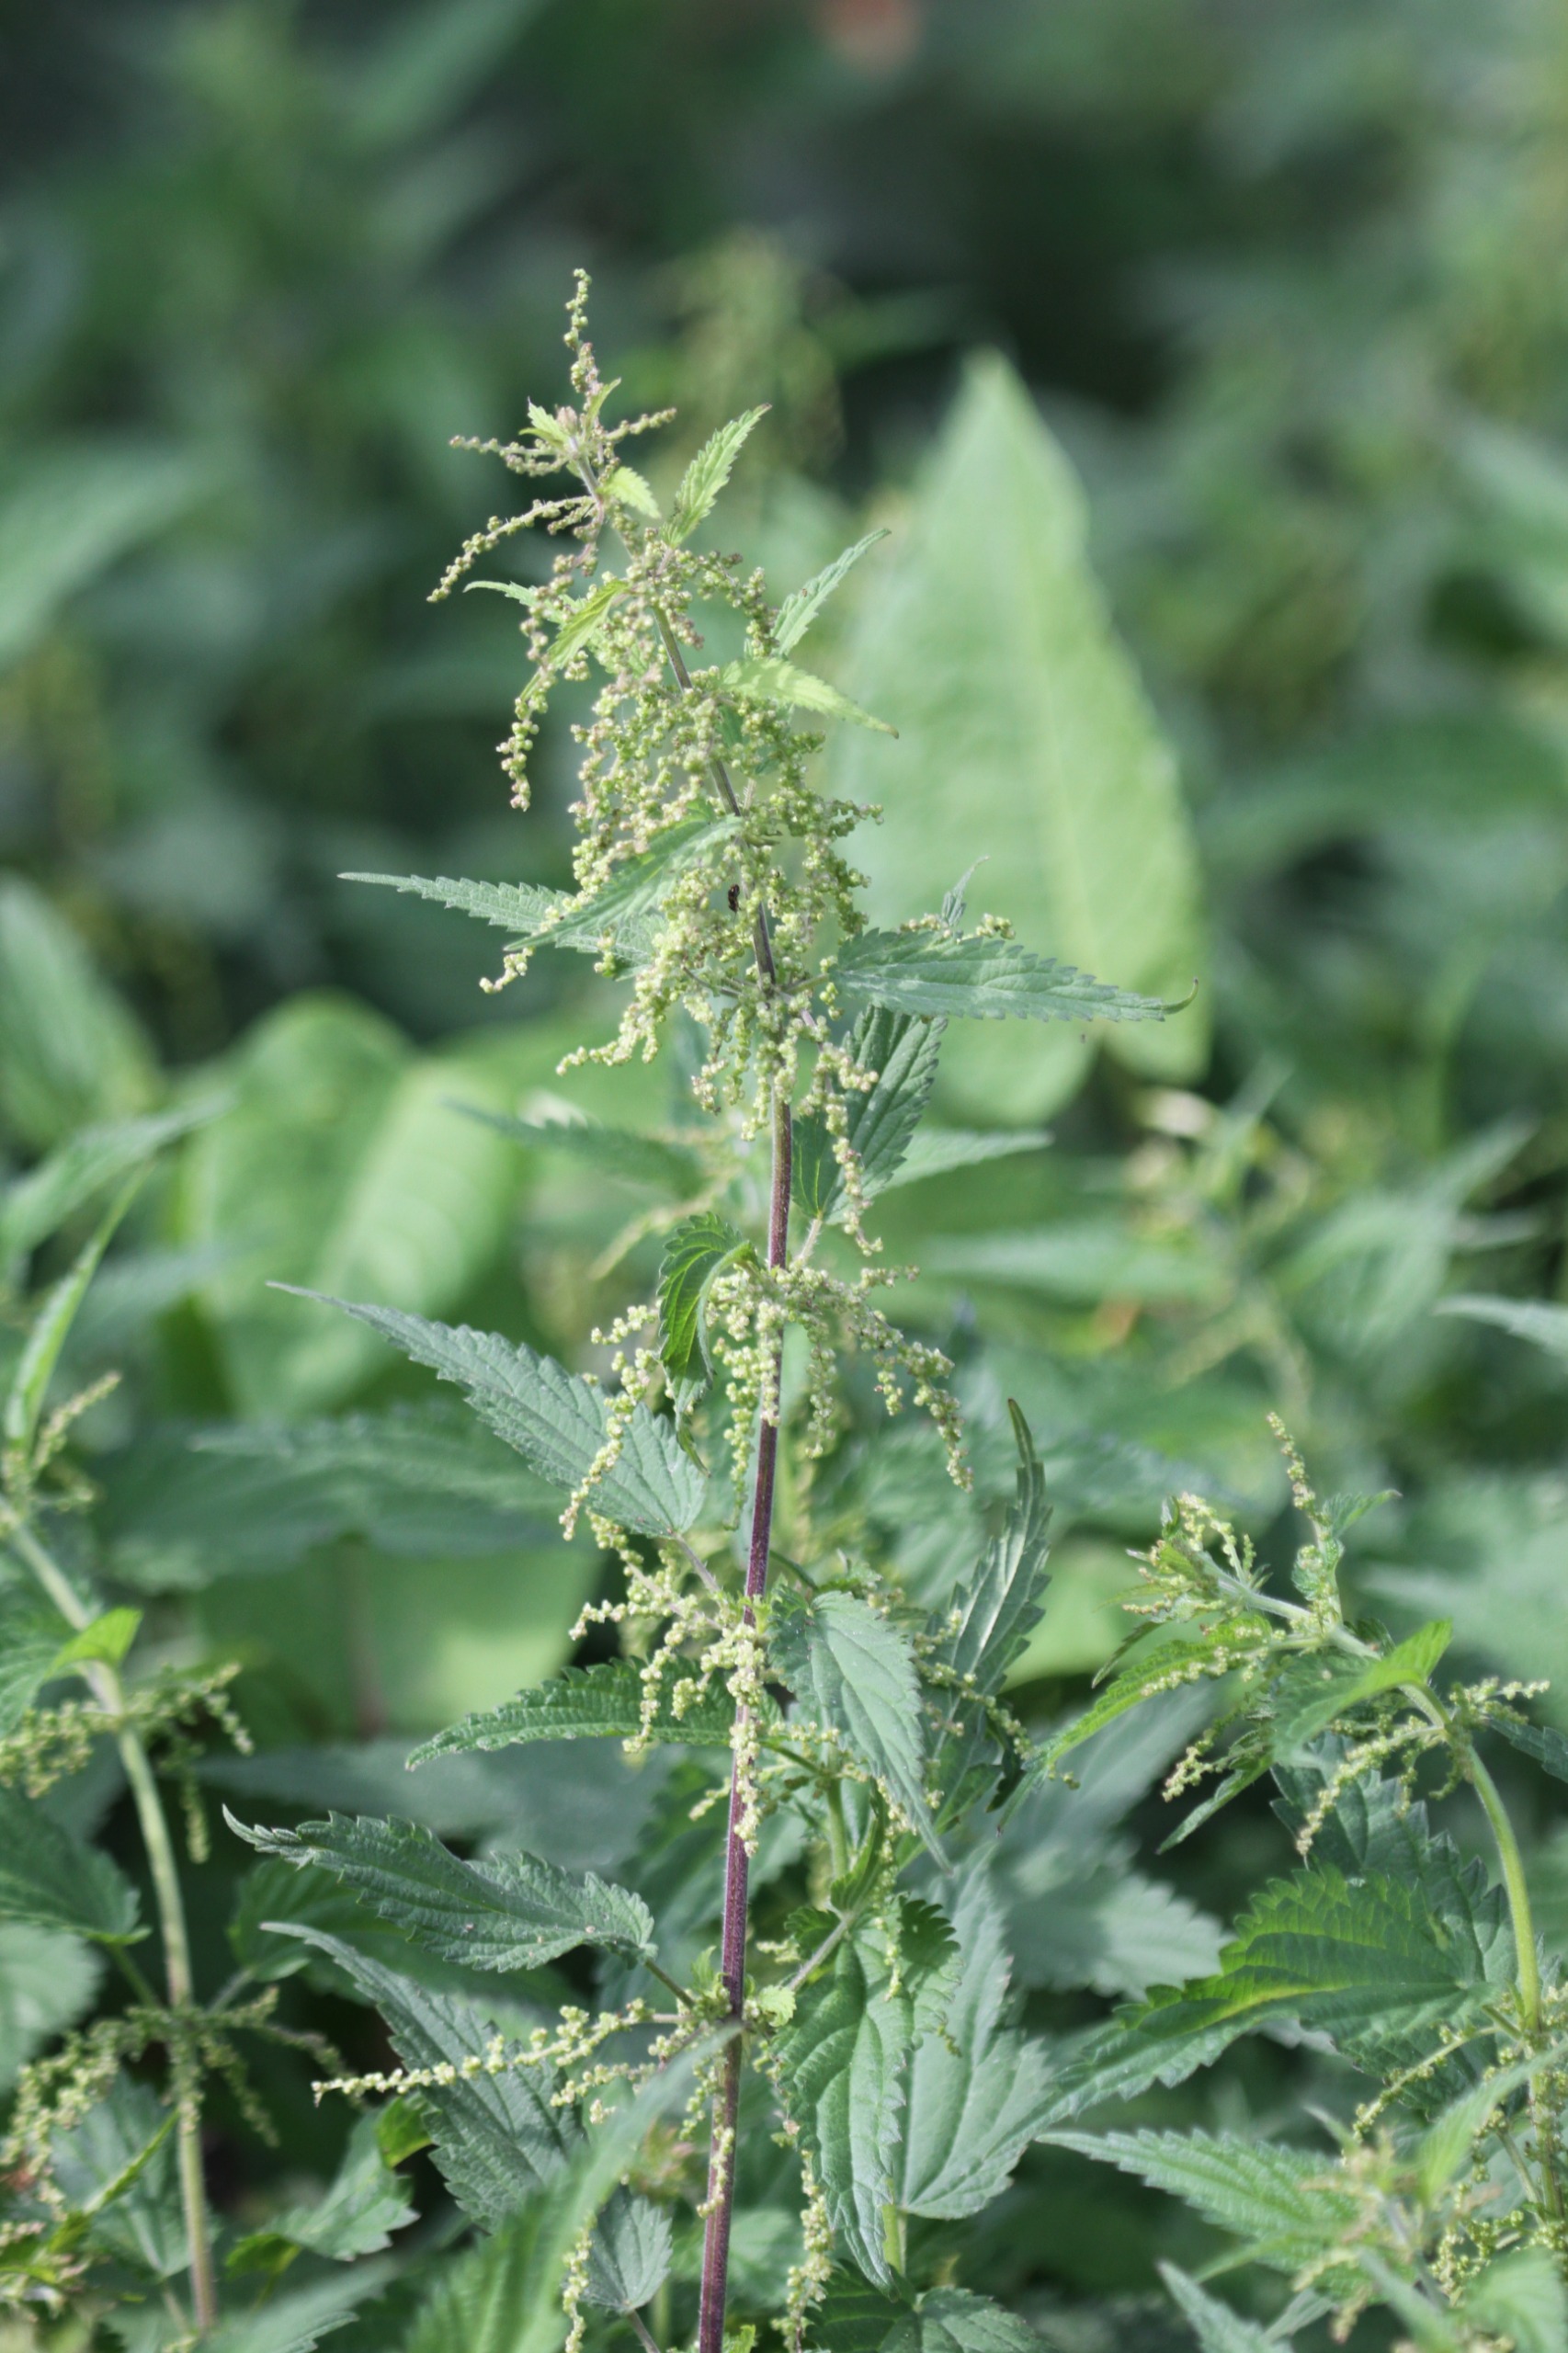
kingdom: Plantae
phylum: Tracheophyta
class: Magnoliopsida
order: Rosales
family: Urticaceae
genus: Urtica
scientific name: Urtica dioica
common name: Stor nælde
